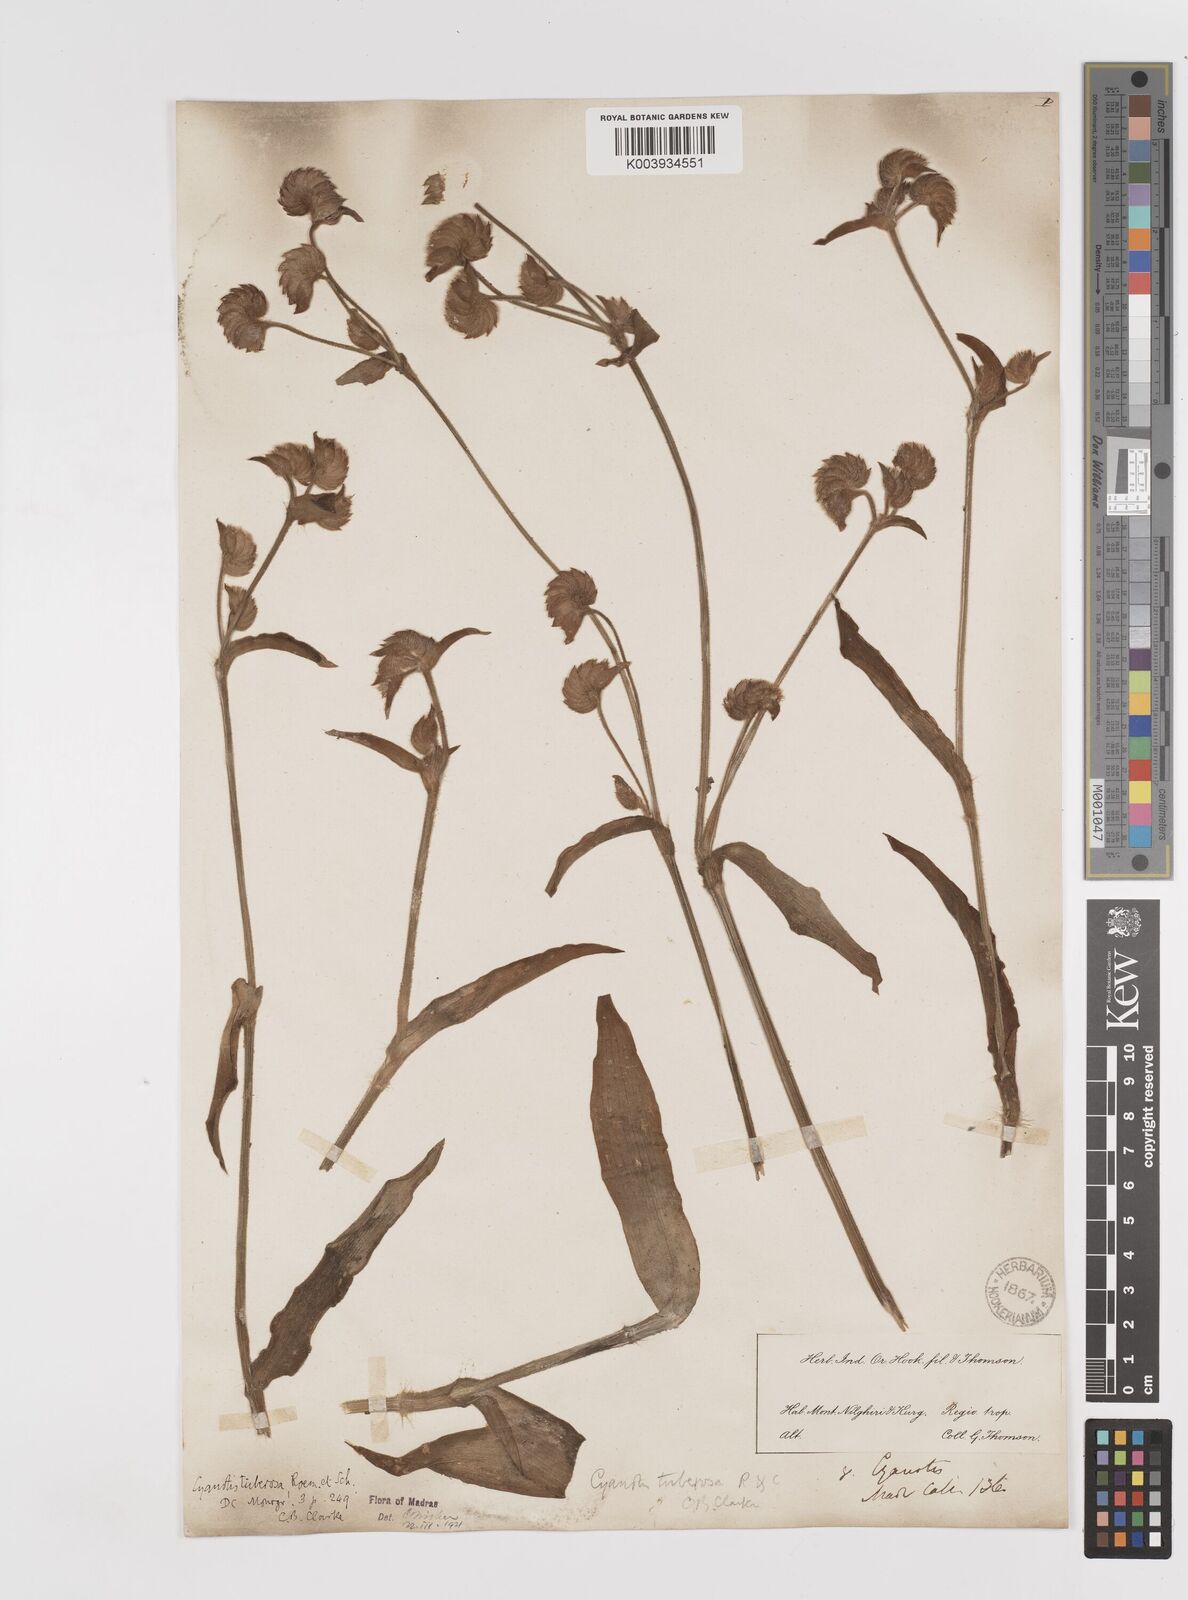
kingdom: Plantae
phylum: Tracheophyta
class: Liliopsida
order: Commelinales
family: Commelinaceae
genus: Cyanotis
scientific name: Cyanotis tuberosa
